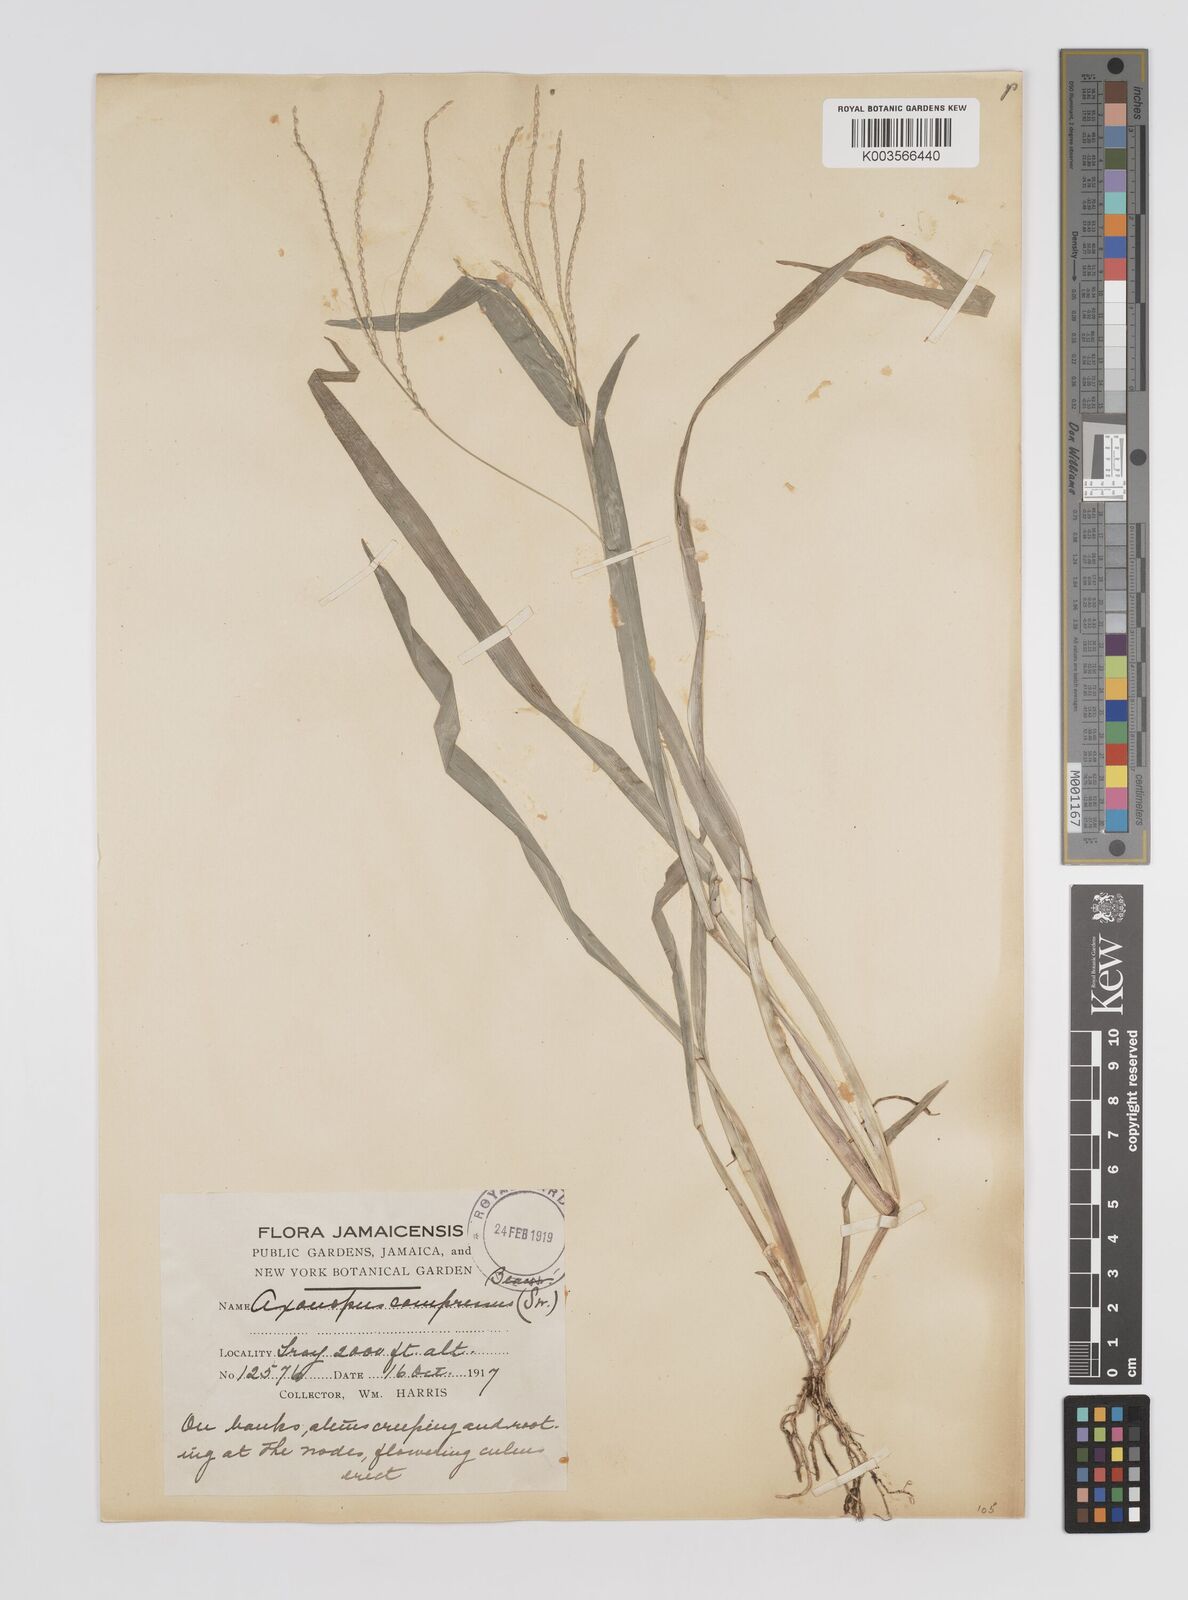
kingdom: Plantae
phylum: Tracheophyta
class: Liliopsida
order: Poales
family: Poaceae
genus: Axonopus
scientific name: Axonopus compressus
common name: American carpet grass
